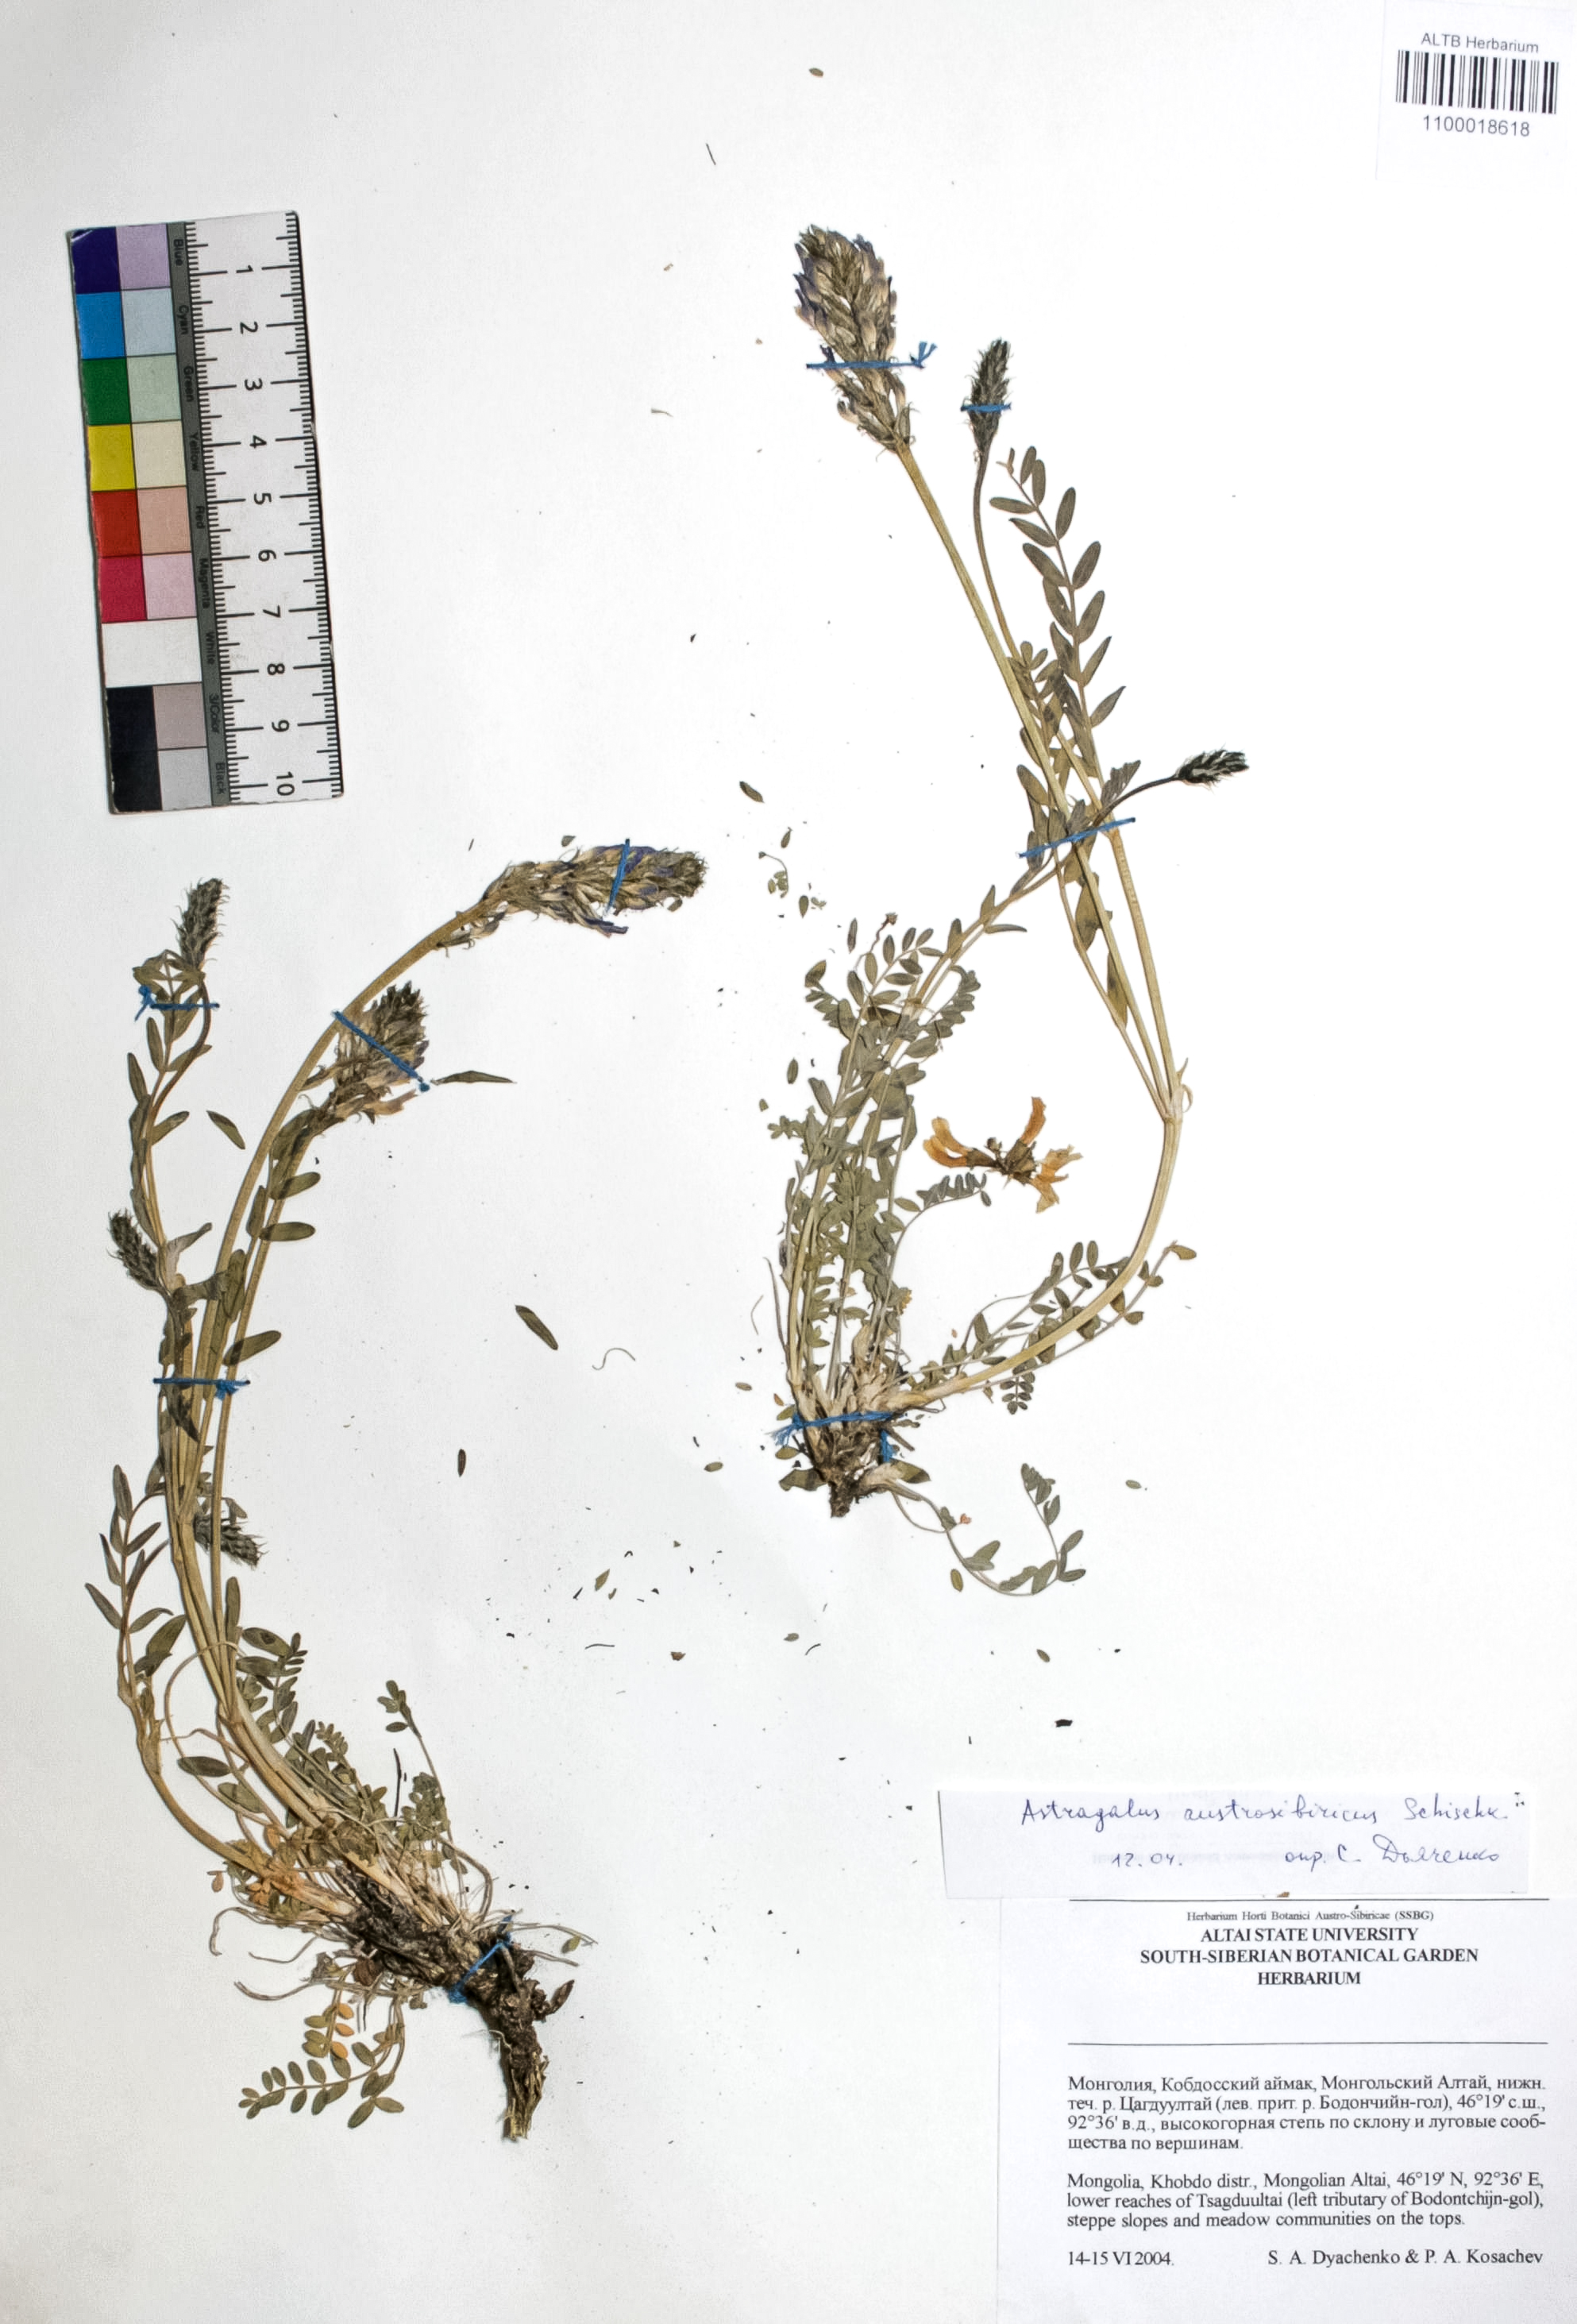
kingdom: Plantae
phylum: Tracheophyta
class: Magnoliopsida
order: Fabales
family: Fabaceae
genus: Astragalus
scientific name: Astragalus laxmannii
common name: Laxmann's milk-vetch
